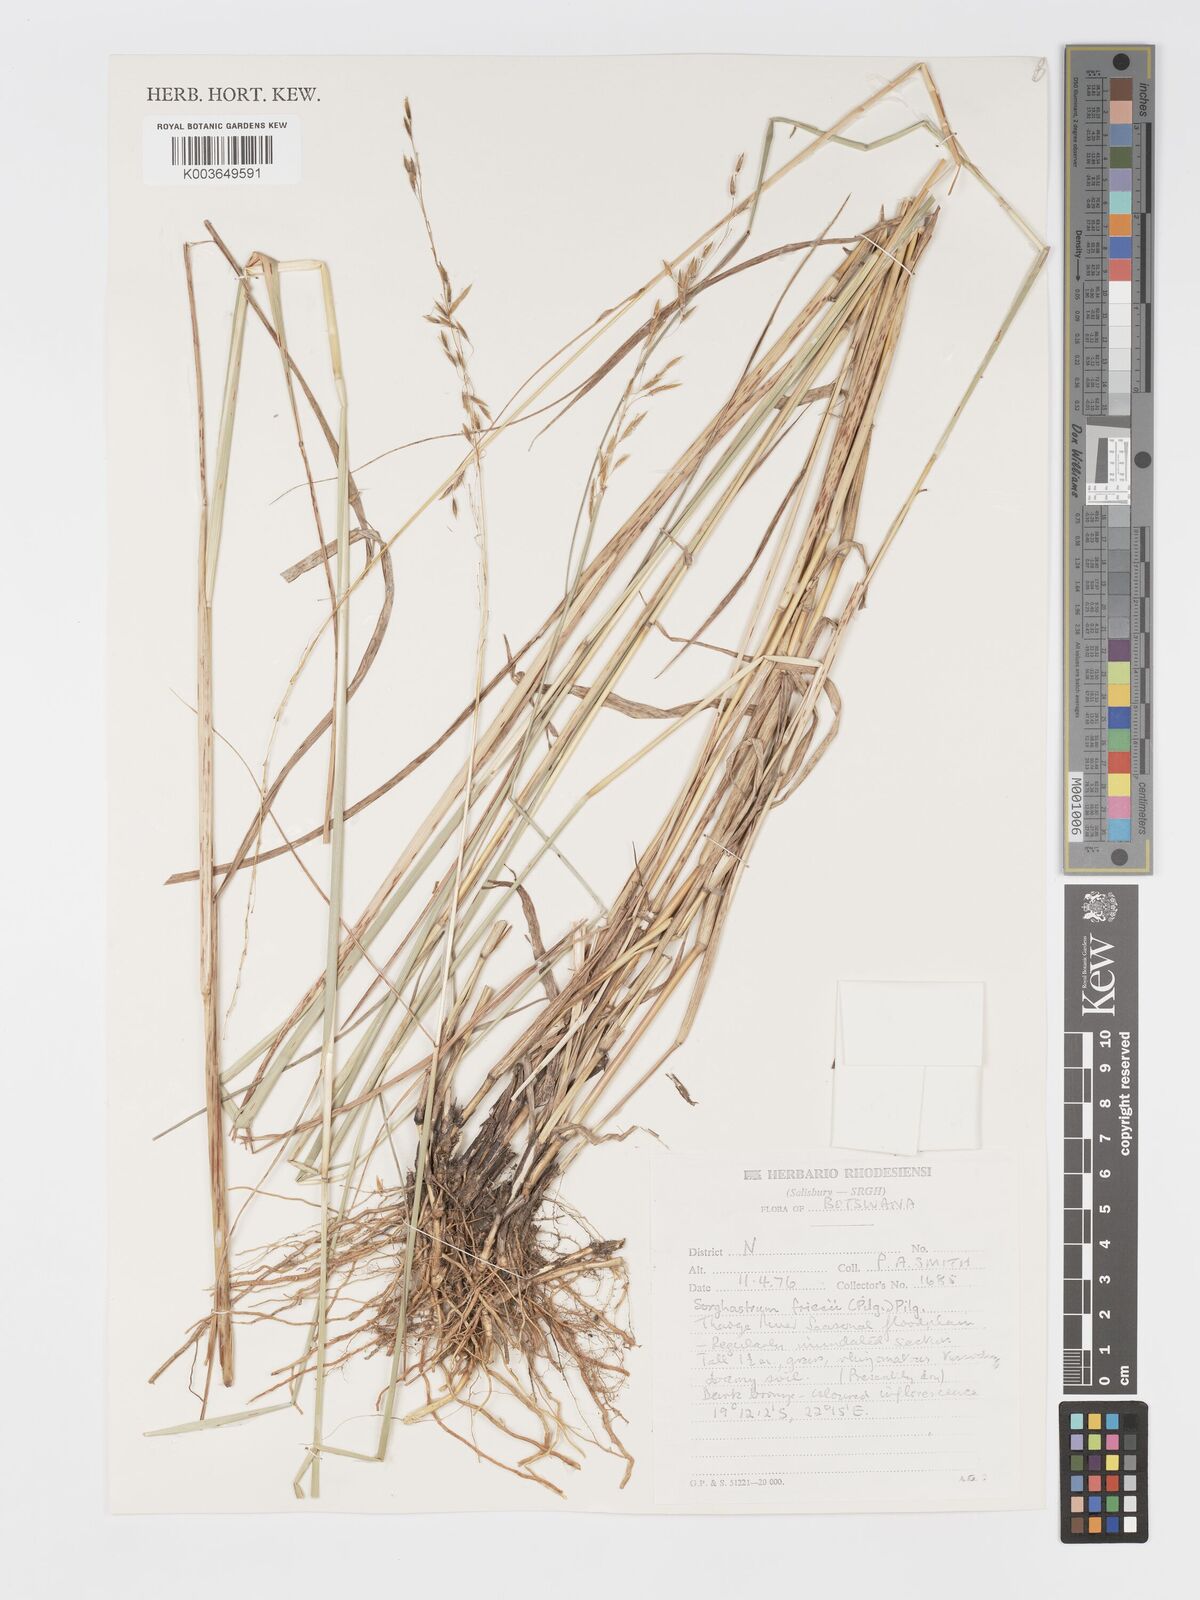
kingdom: Plantae
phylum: Tracheophyta
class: Liliopsida
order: Poales
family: Poaceae
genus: Sorghastrum
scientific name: Sorghastrum nudipes
